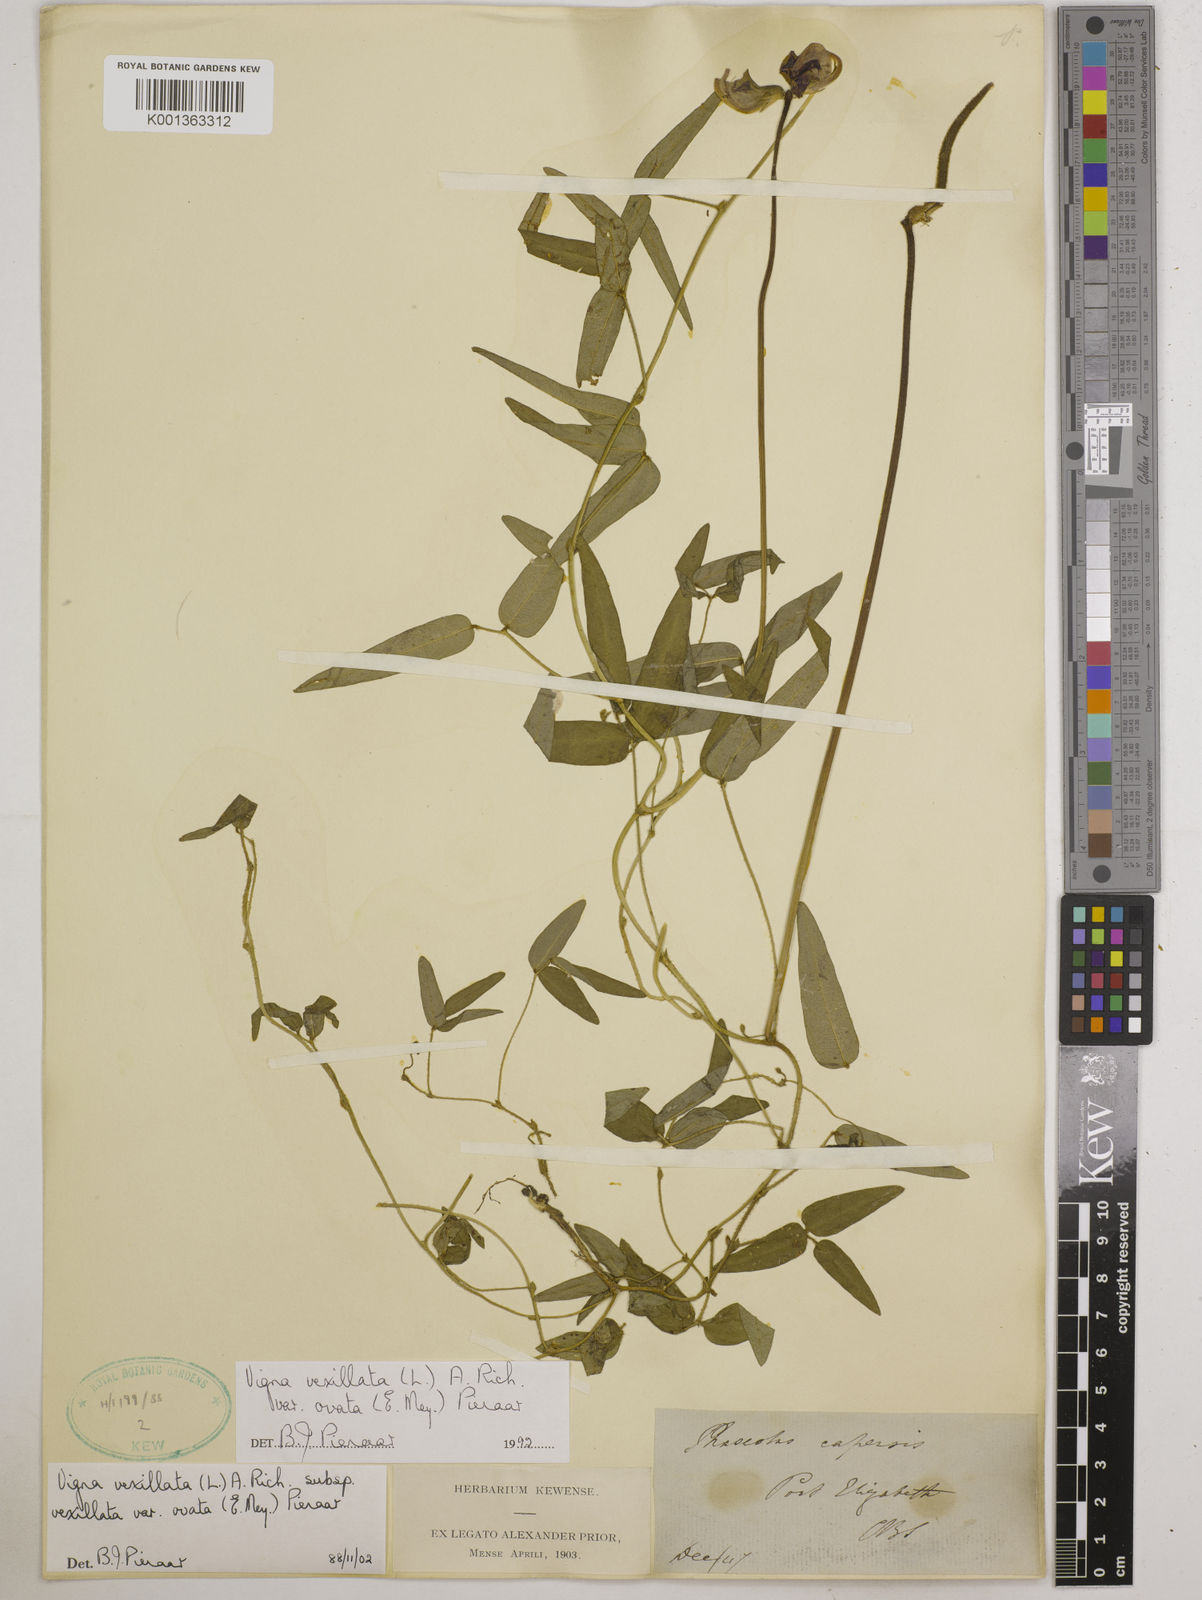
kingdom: Plantae
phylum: Tracheophyta
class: Magnoliopsida
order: Fabales
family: Fabaceae
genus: Vigna
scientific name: Vigna
